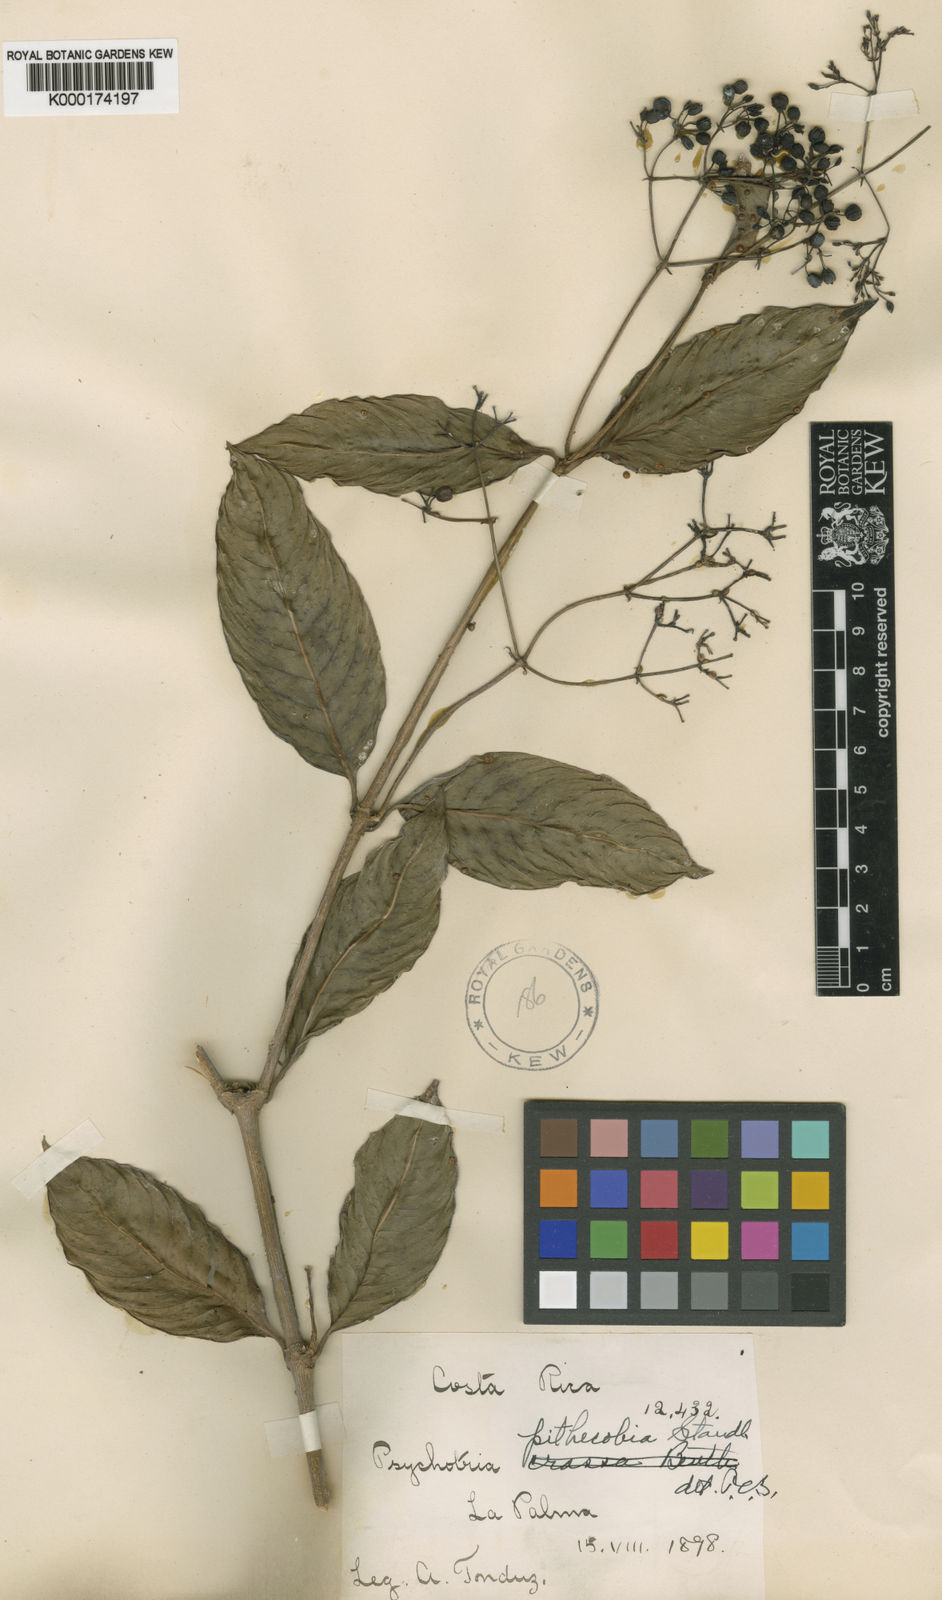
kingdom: Plantae
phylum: Tracheophyta
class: Magnoliopsida
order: Gentianales
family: Rubiaceae
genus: Notopleura
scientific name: Notopleura pithecobia
